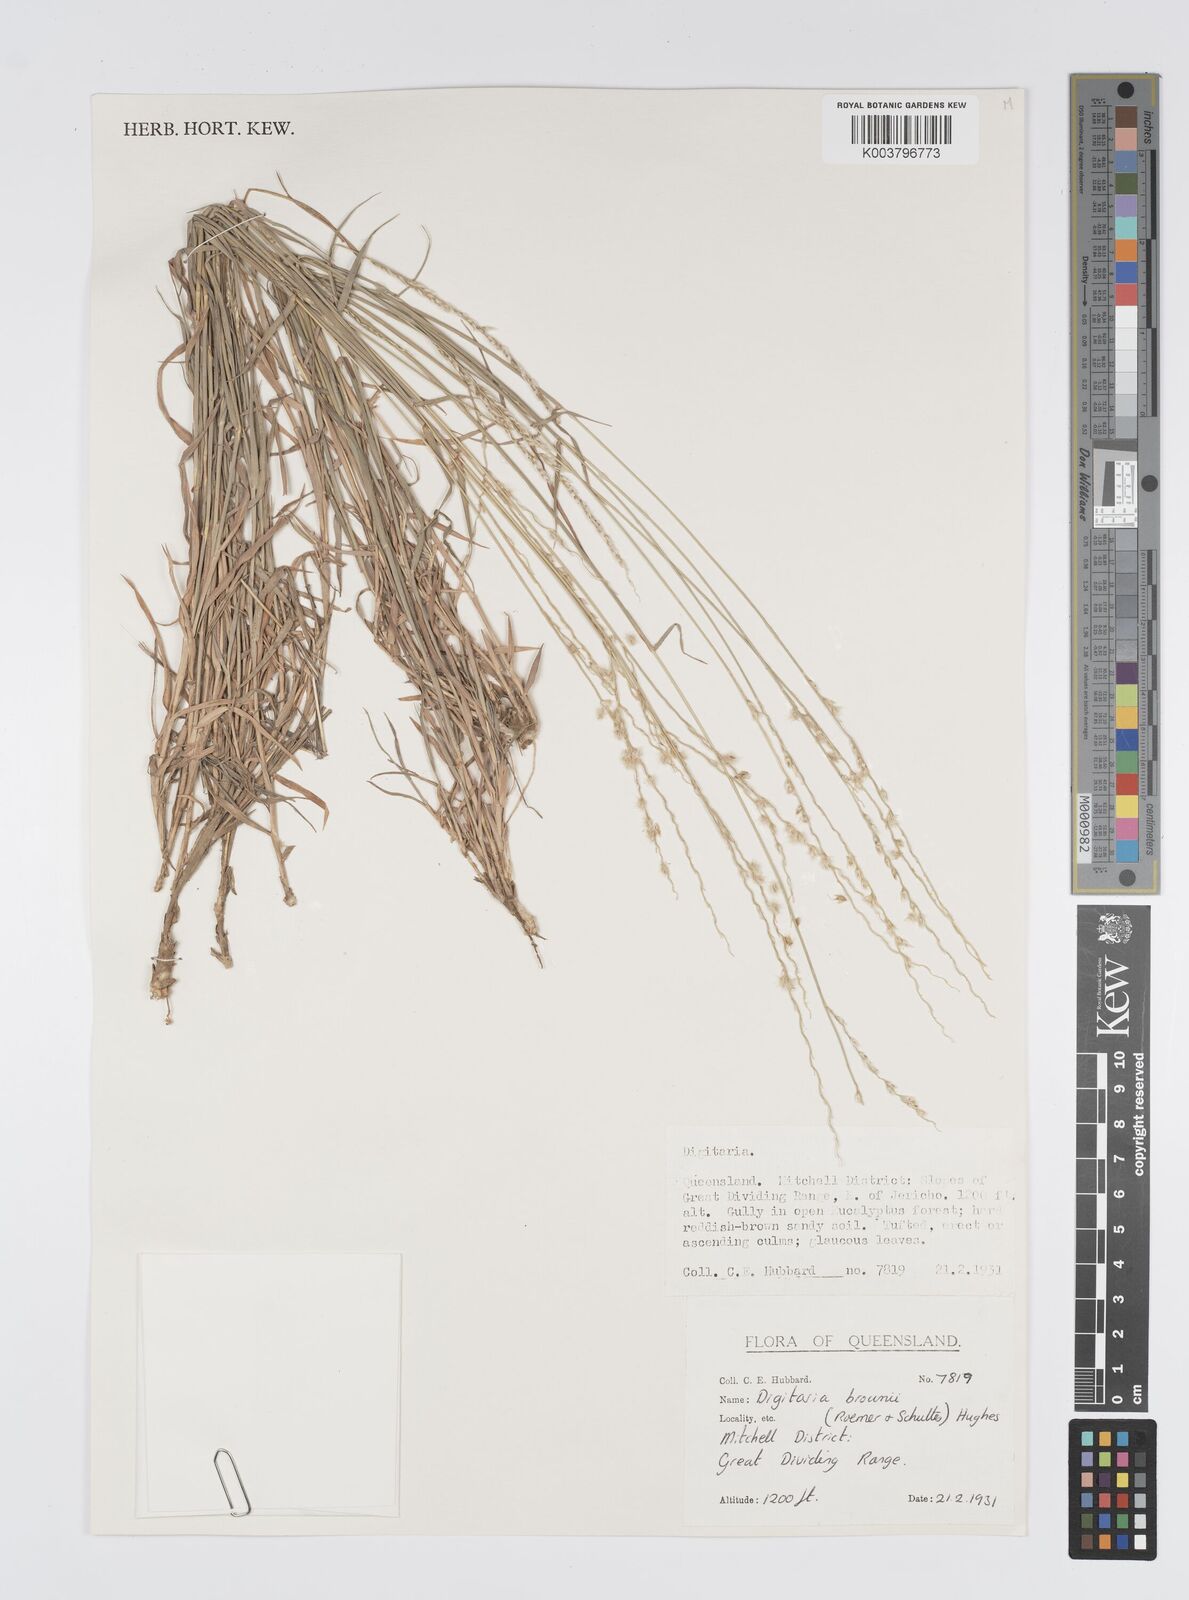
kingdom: Plantae
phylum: Tracheophyta
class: Liliopsida
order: Poales
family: Poaceae
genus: Digitaria
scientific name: Digitaria brownii
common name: Cotton grass
